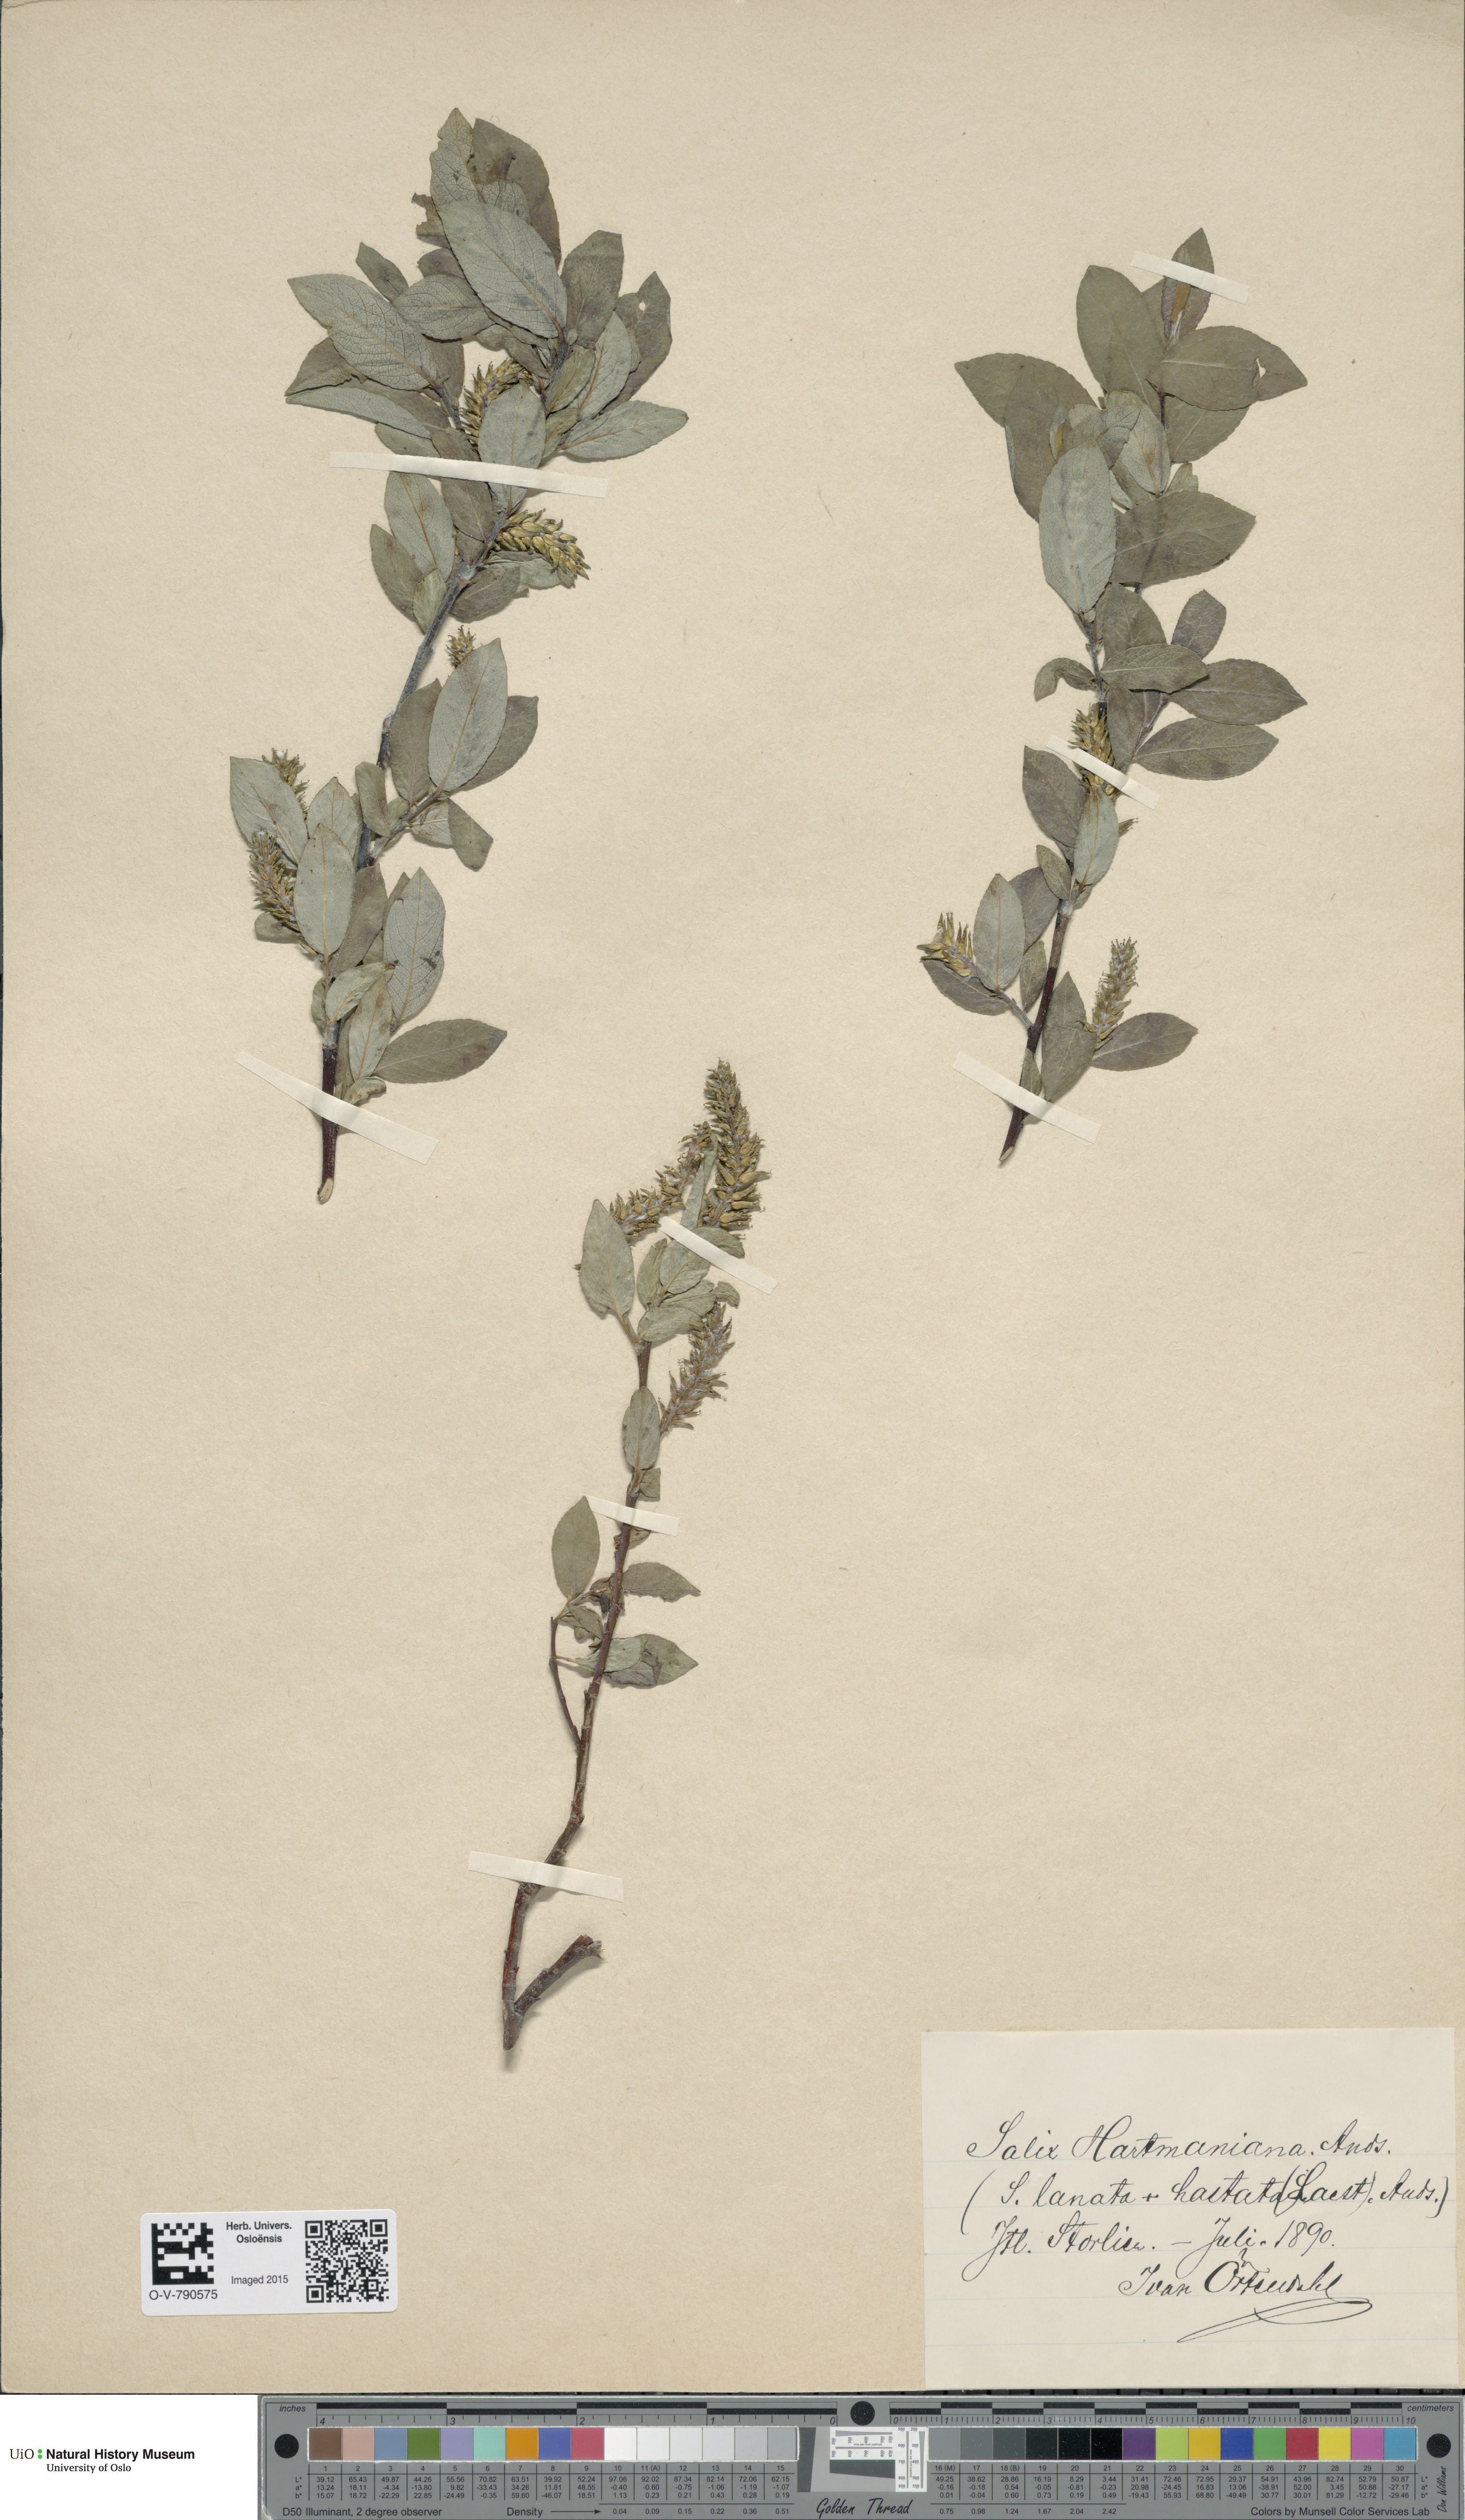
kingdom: Plantae
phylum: Tracheophyta
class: Magnoliopsida
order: Malpighiales
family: Salicaceae
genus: Salix
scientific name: Salix
